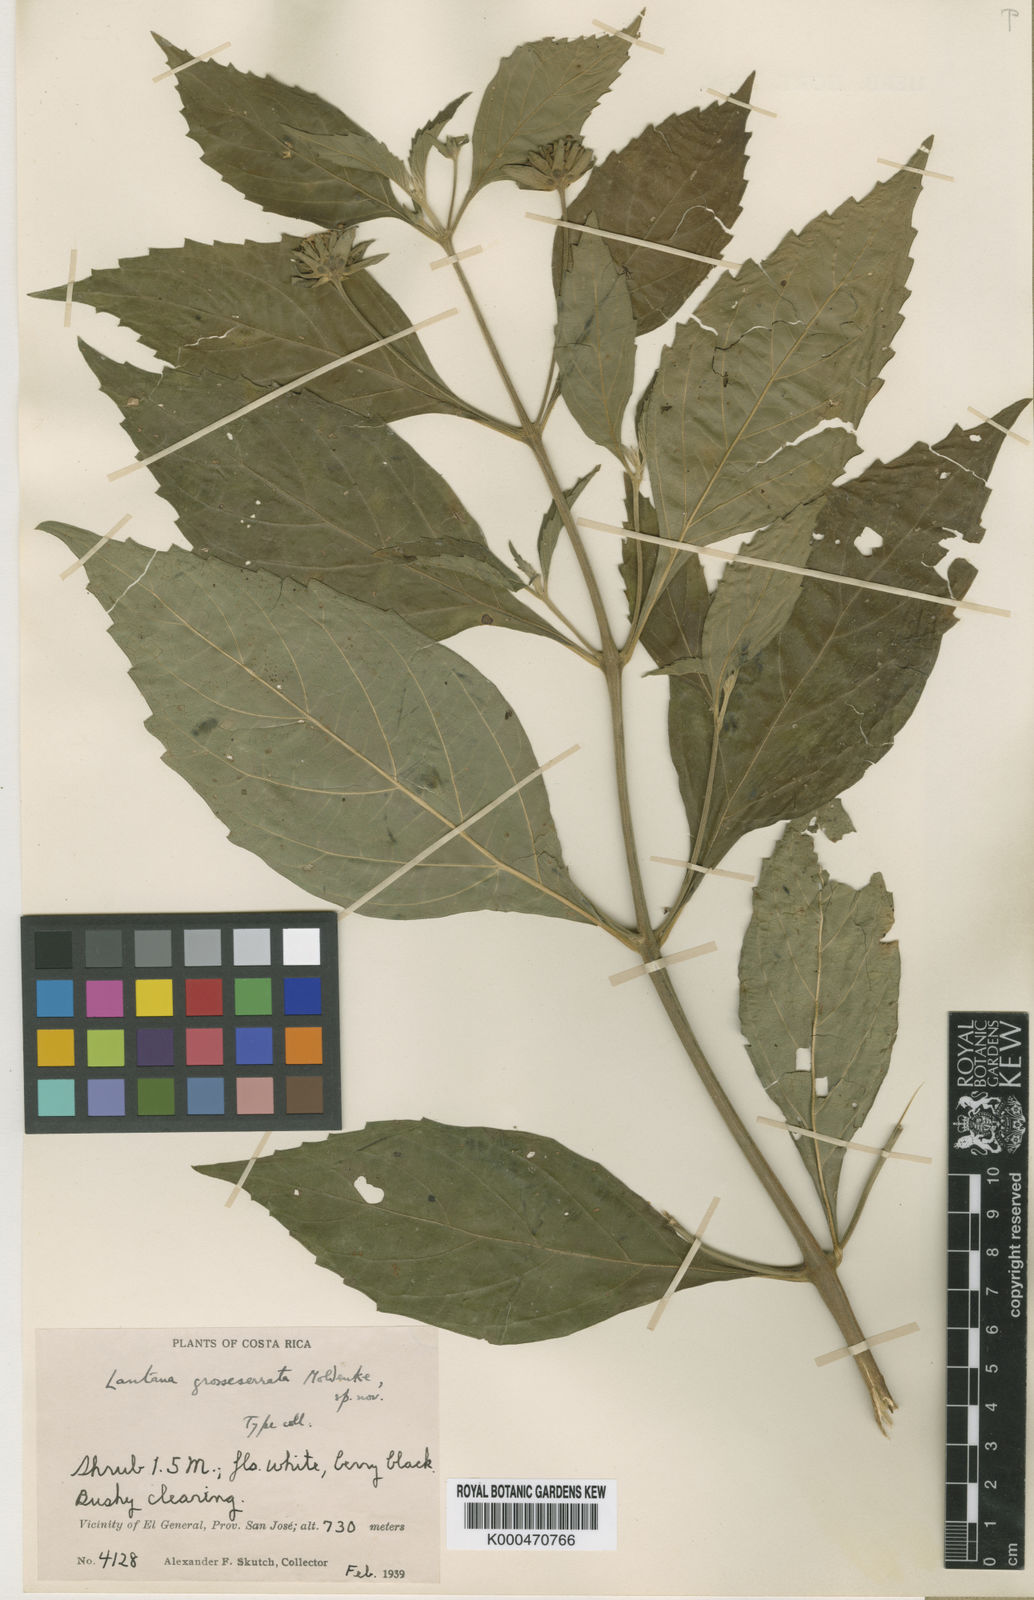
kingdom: Plantae
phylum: Tracheophyta
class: Magnoliopsida
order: Lamiales
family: Verbenaceae
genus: Lantana
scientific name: Lantana
